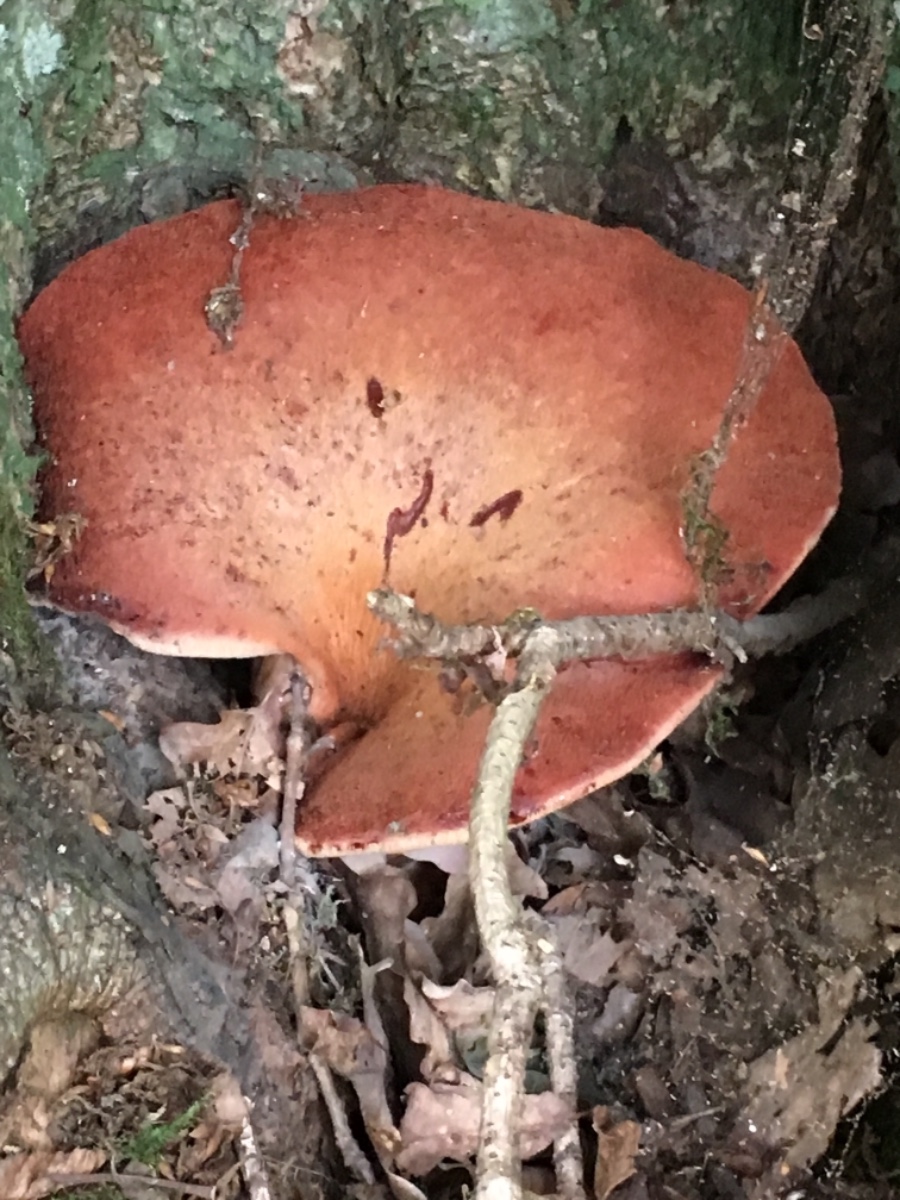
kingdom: Fungi
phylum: Basidiomycota
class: Agaricomycetes
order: Agaricales
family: Fistulinaceae
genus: Fistulina
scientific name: Fistulina hepatica
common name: oksetunge
